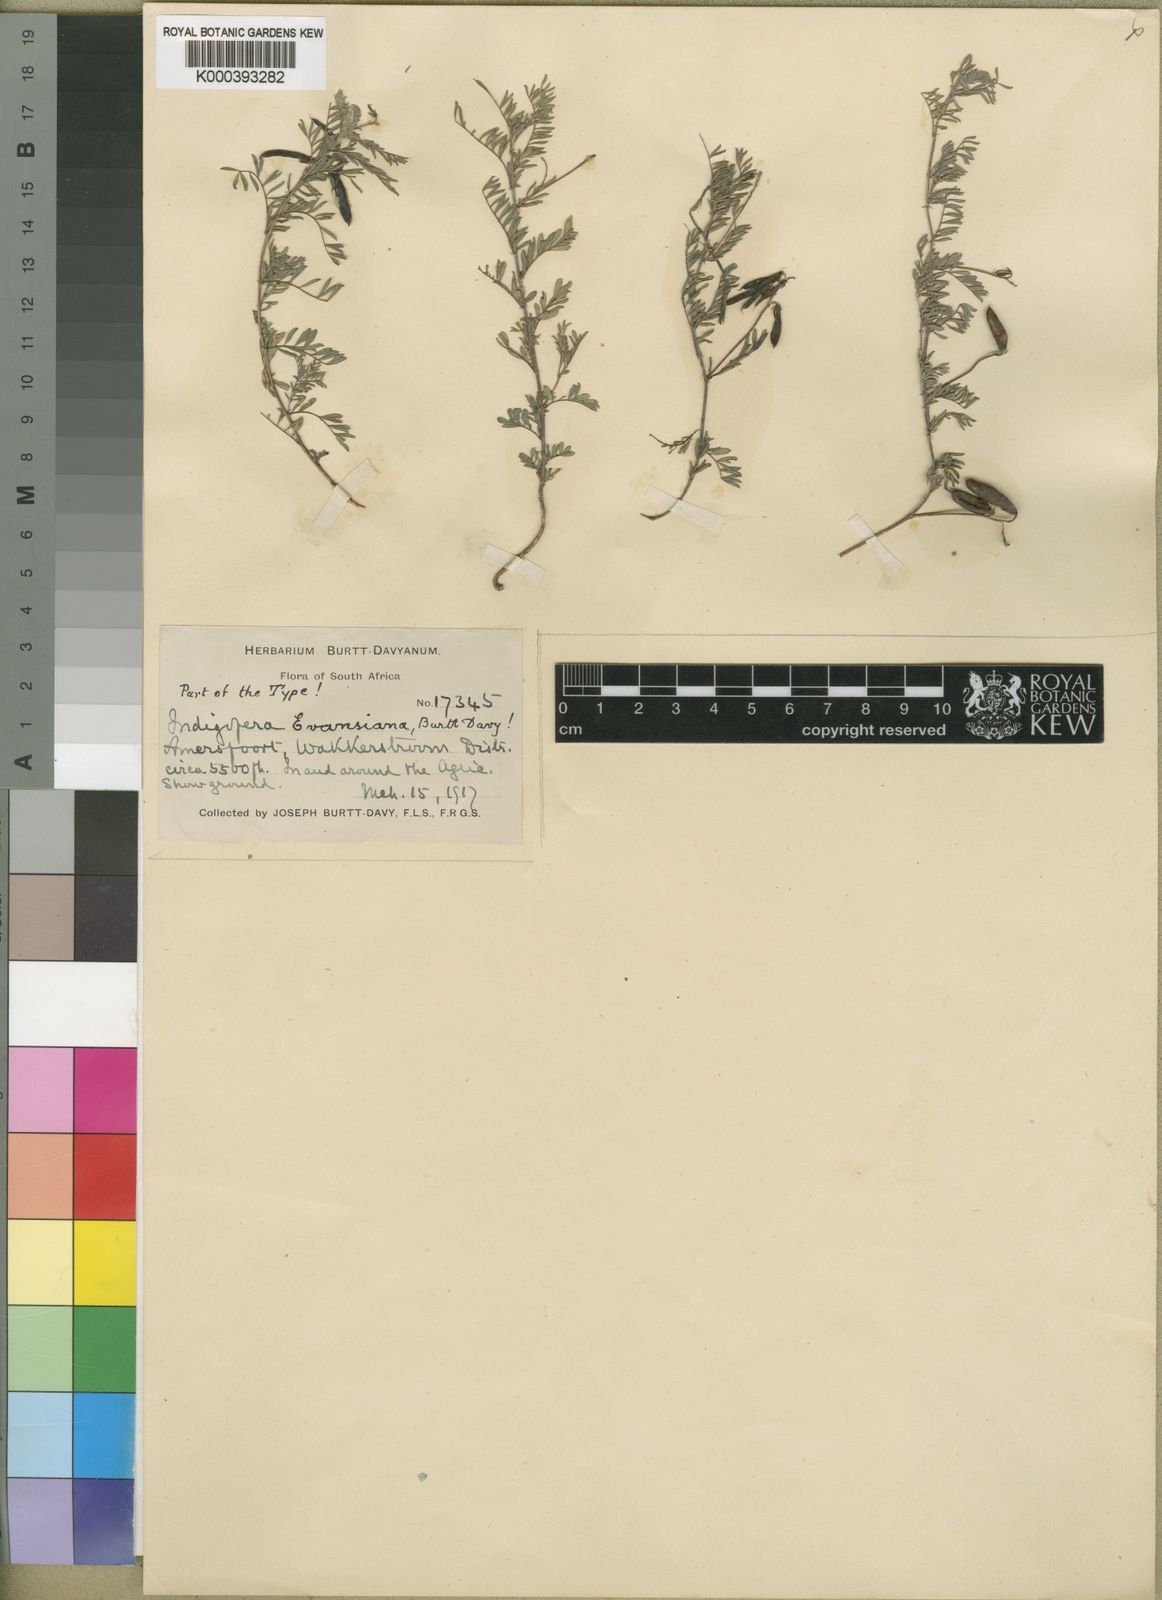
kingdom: Plantae
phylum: Tracheophyta
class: Magnoliopsida
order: Fabales
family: Fabaceae
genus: Indigofera
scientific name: Indigofera evansiana
